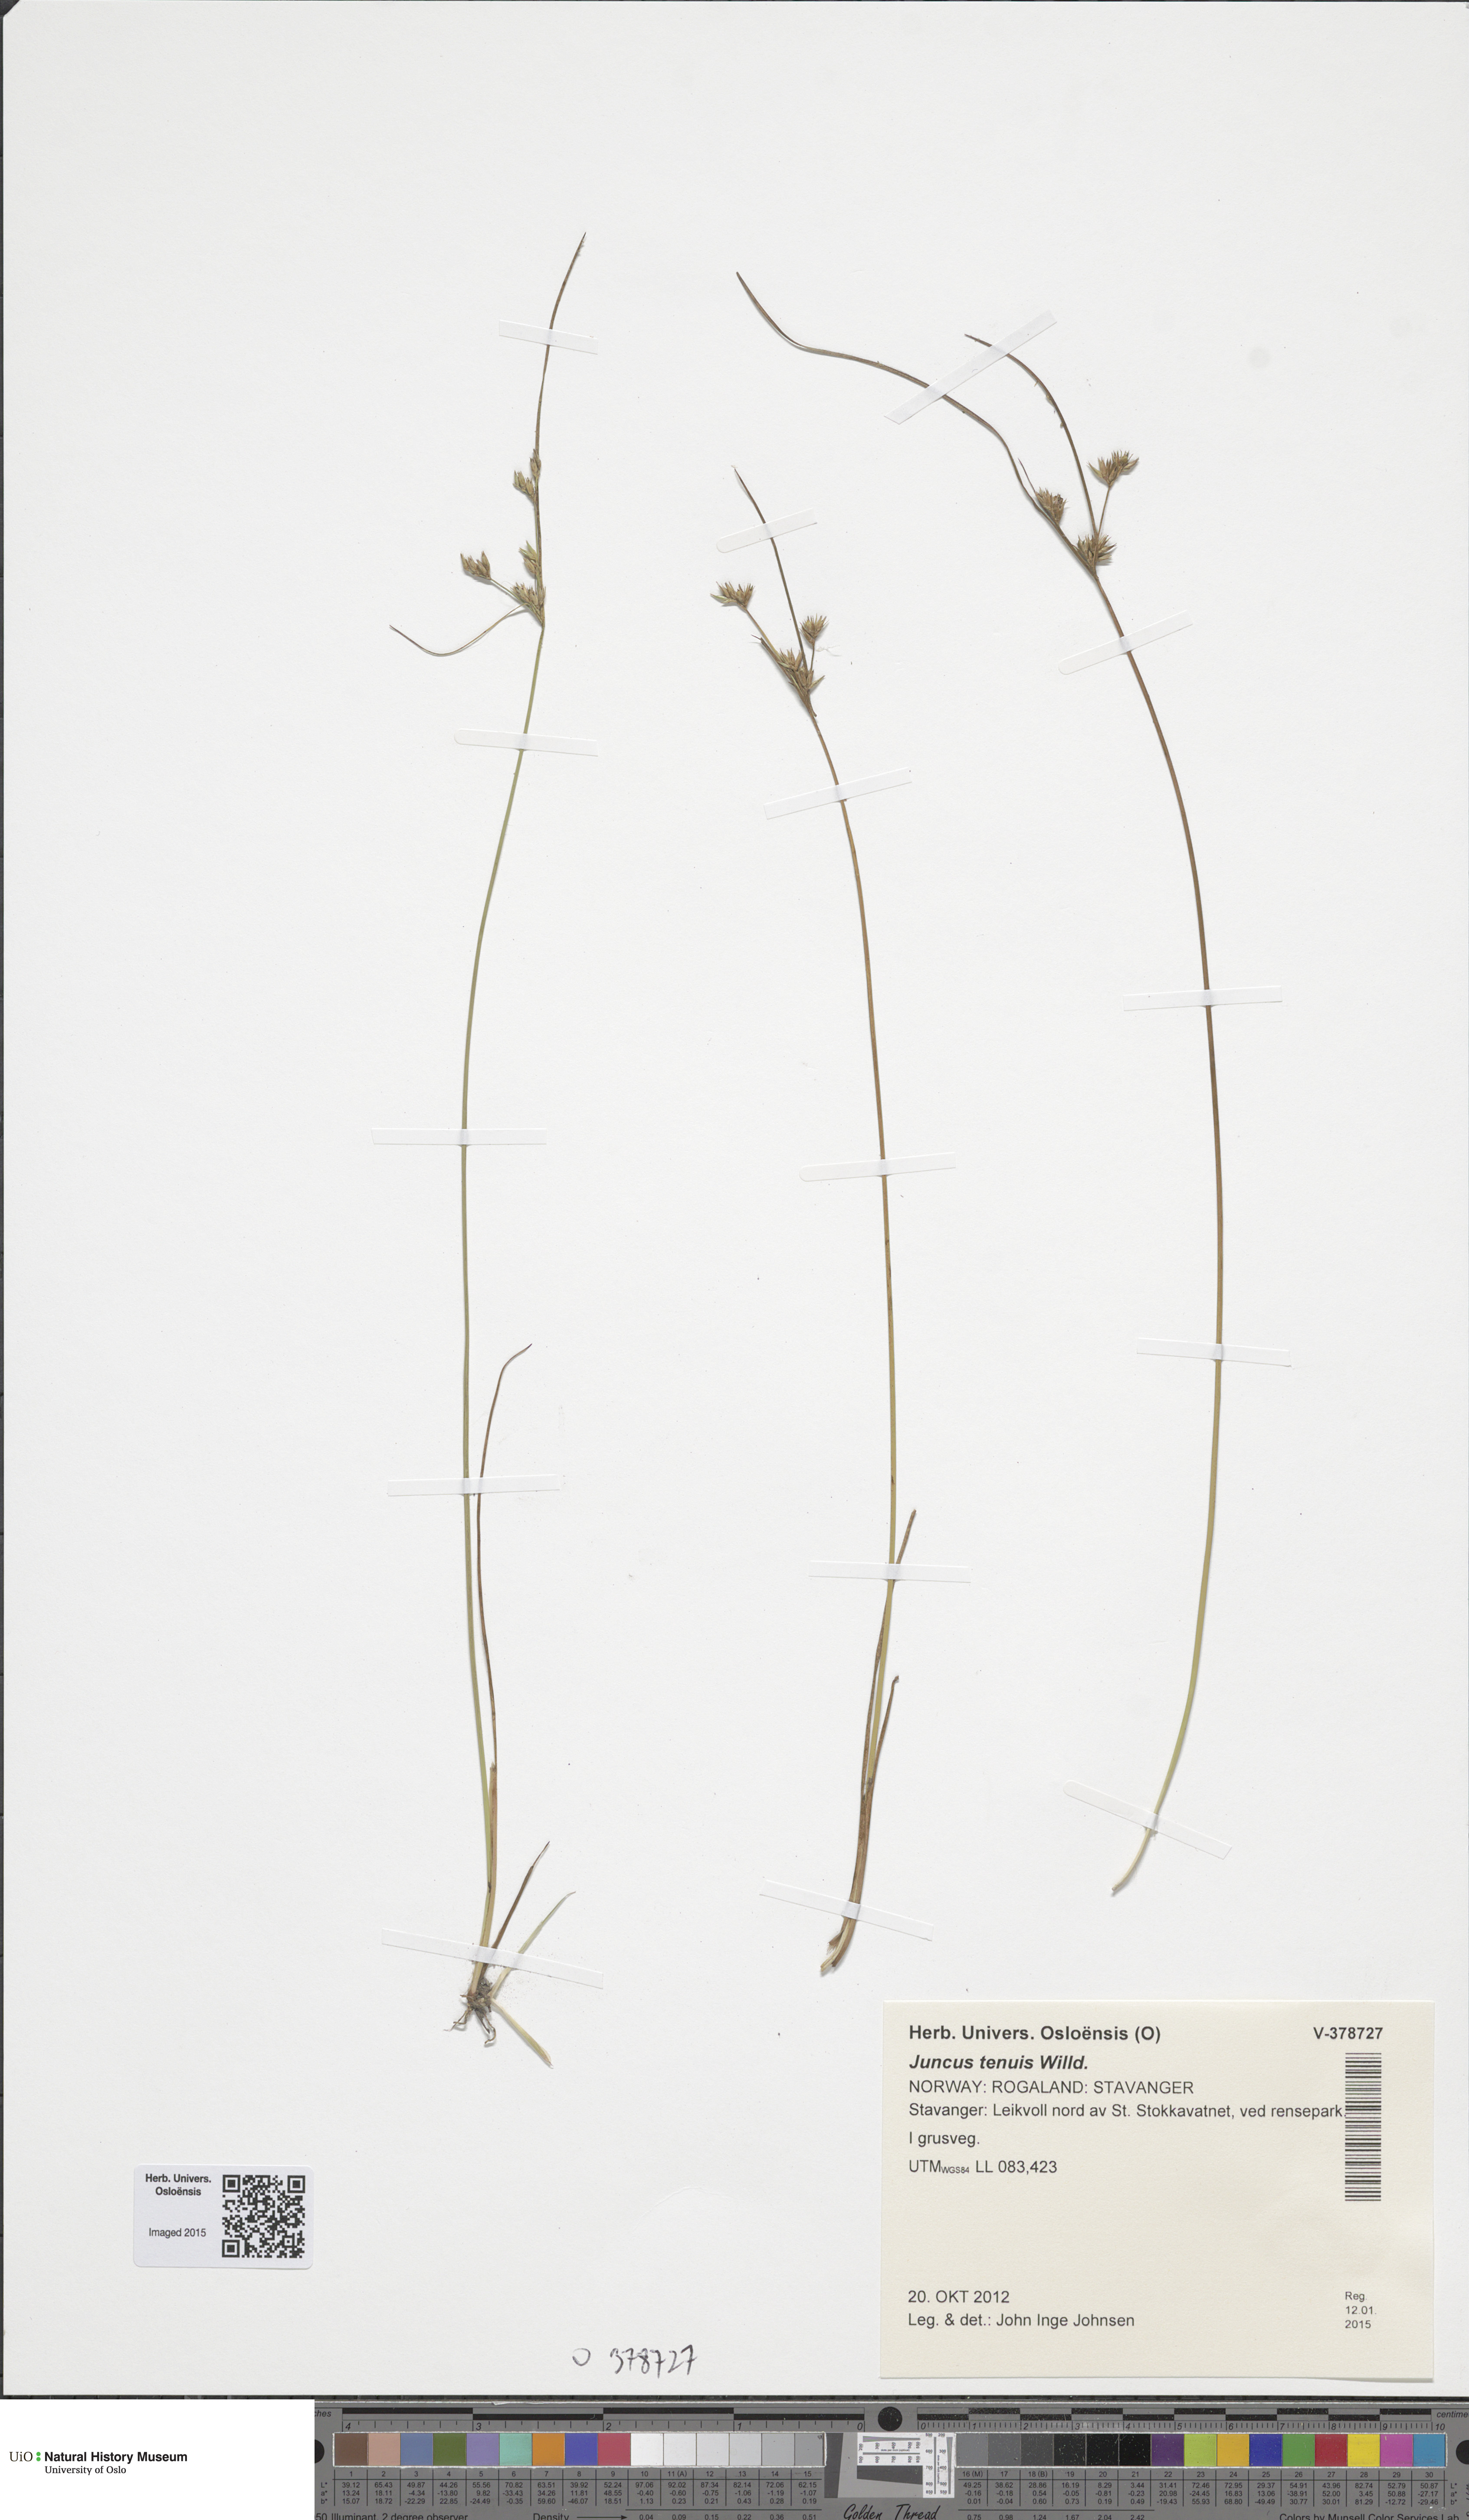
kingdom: Plantae
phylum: Tracheophyta
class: Liliopsida
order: Poales
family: Juncaceae
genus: Juncus
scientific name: Juncus tenuis
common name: Slender rush
